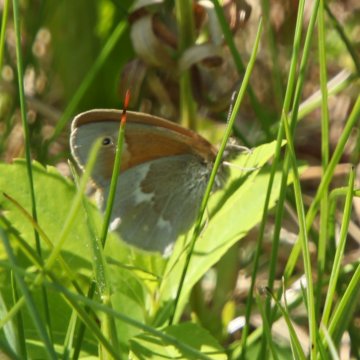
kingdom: Animalia
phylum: Arthropoda
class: Insecta
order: Lepidoptera
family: Nymphalidae
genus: Coenonympha
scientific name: Coenonympha tullia
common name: Large Heath
